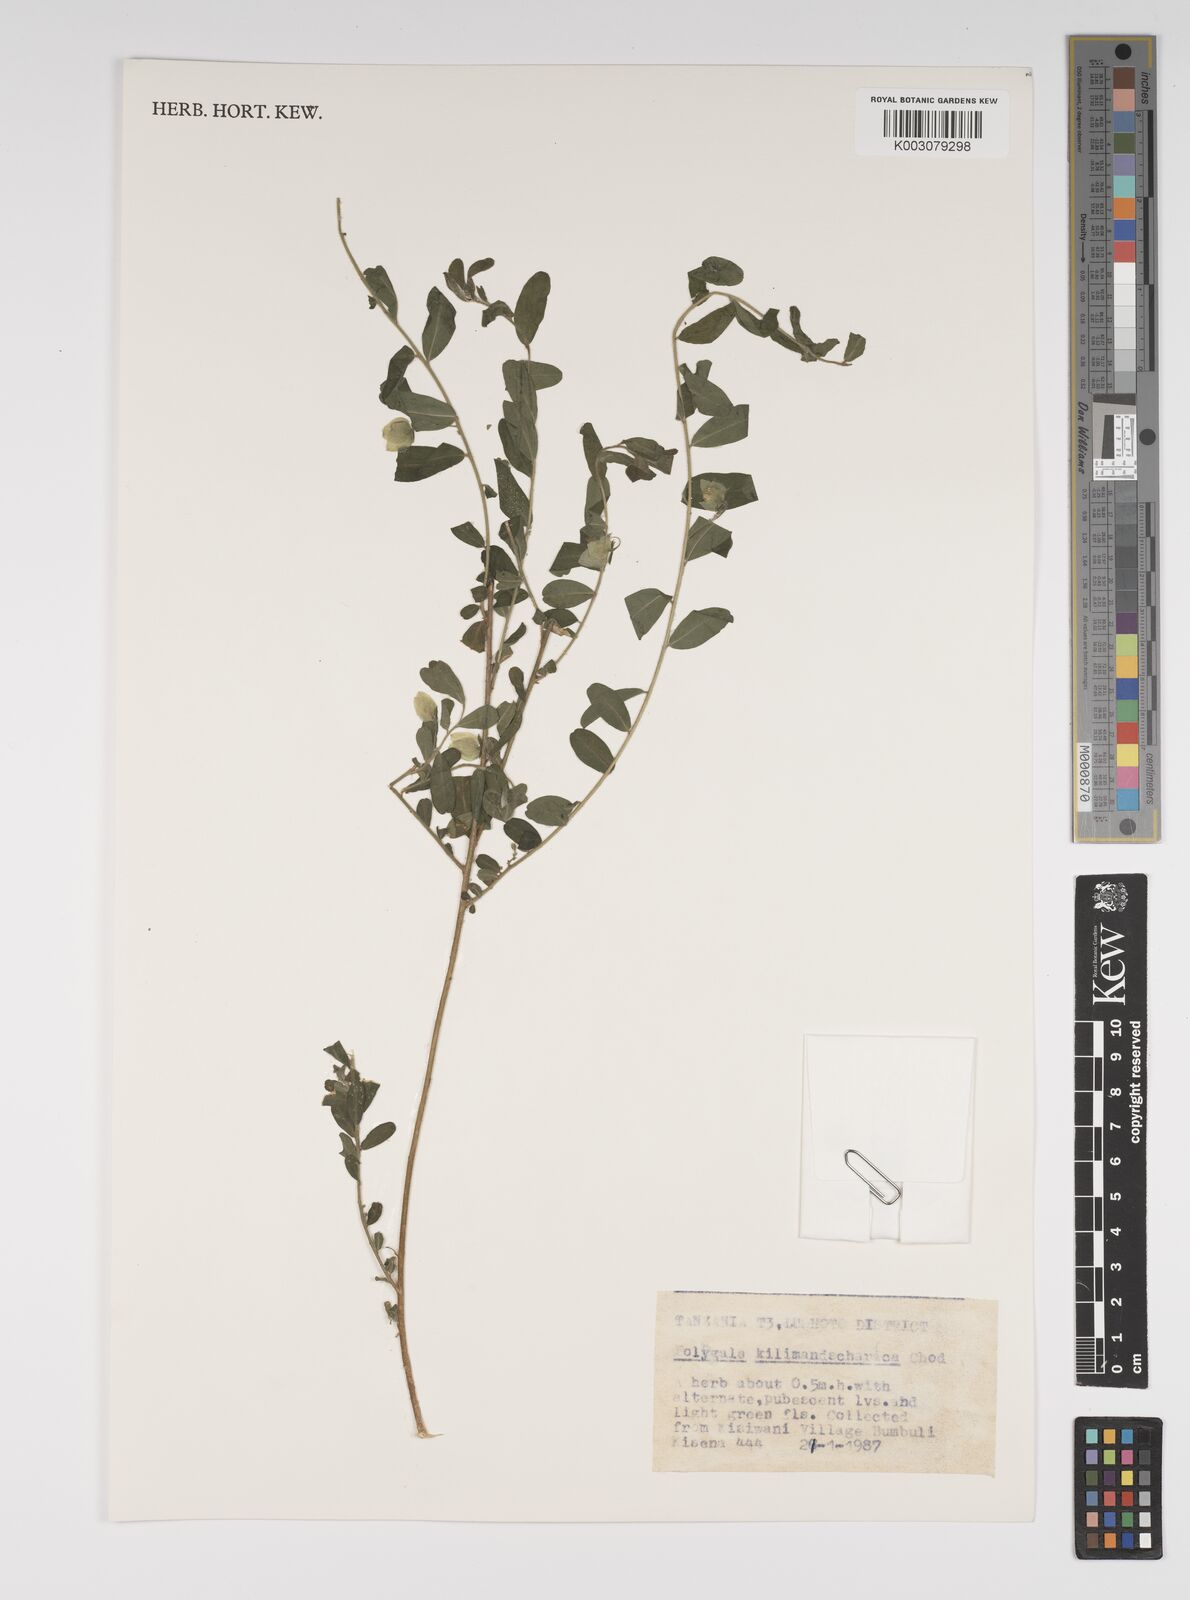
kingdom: Plantae
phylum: Tracheophyta
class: Magnoliopsida
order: Fabales
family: Polygalaceae
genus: Polygala
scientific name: Polygala kilimandjarica
